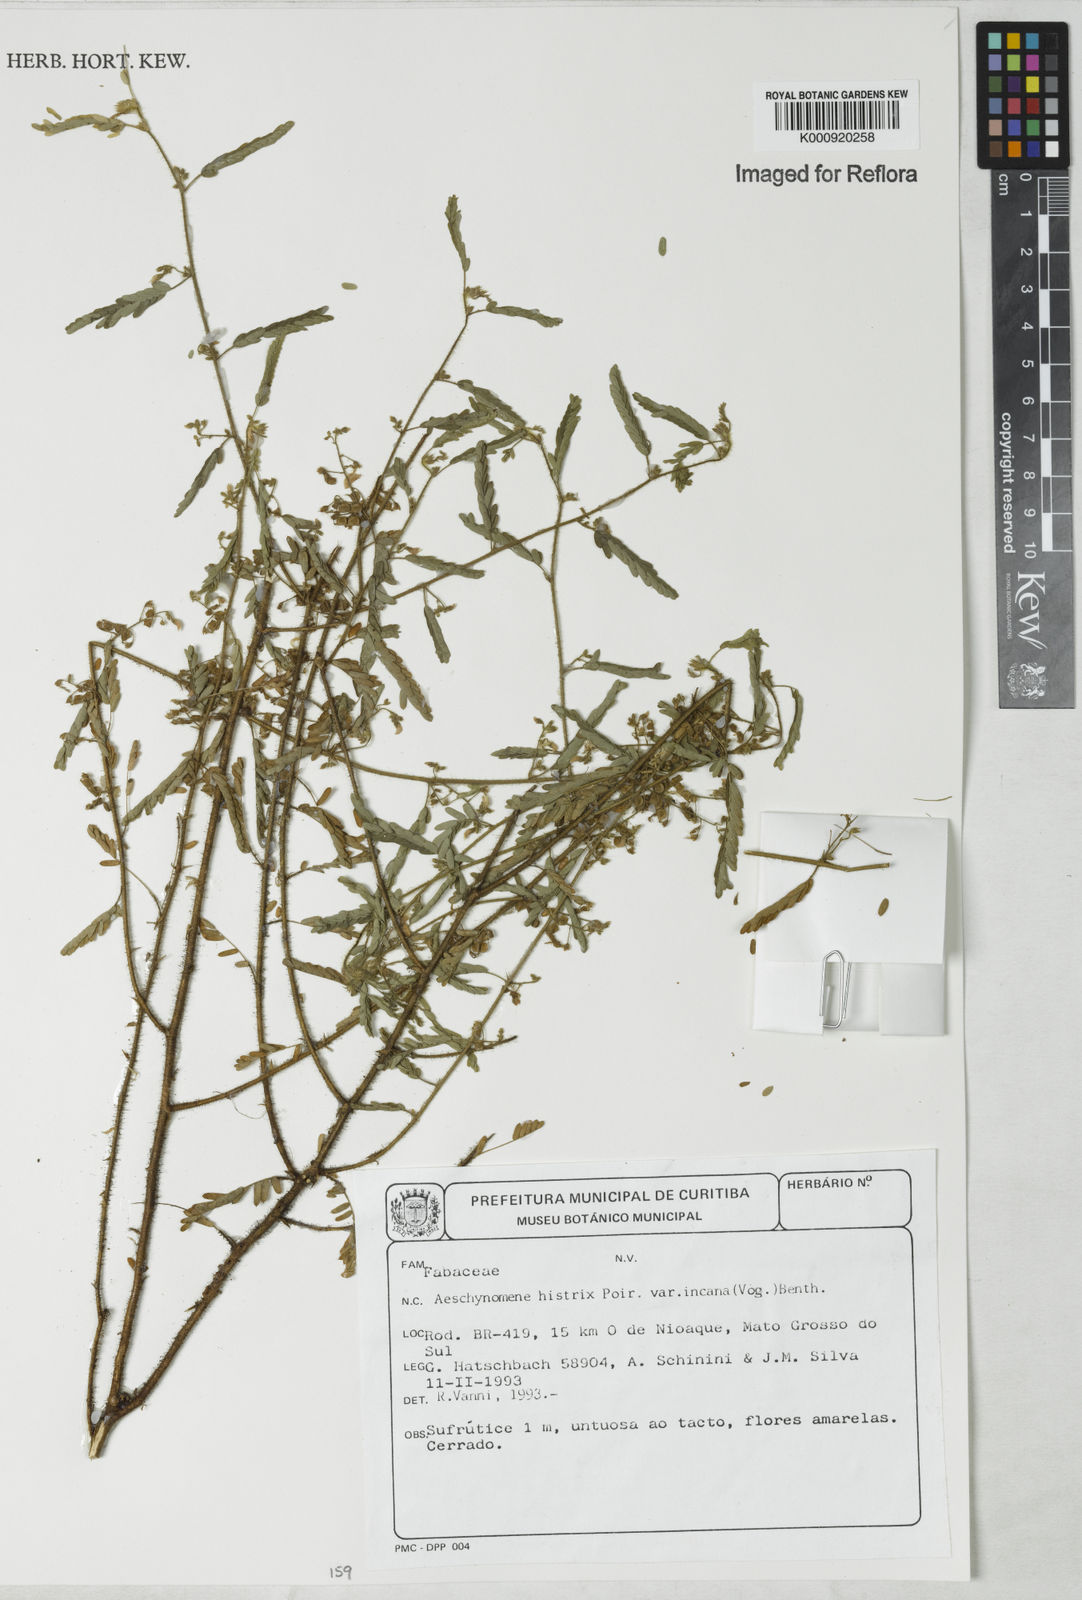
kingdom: Plantae
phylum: Tracheophyta
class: Magnoliopsida
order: Fabales
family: Fabaceae
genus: Ctenodon
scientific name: Ctenodon histrix
